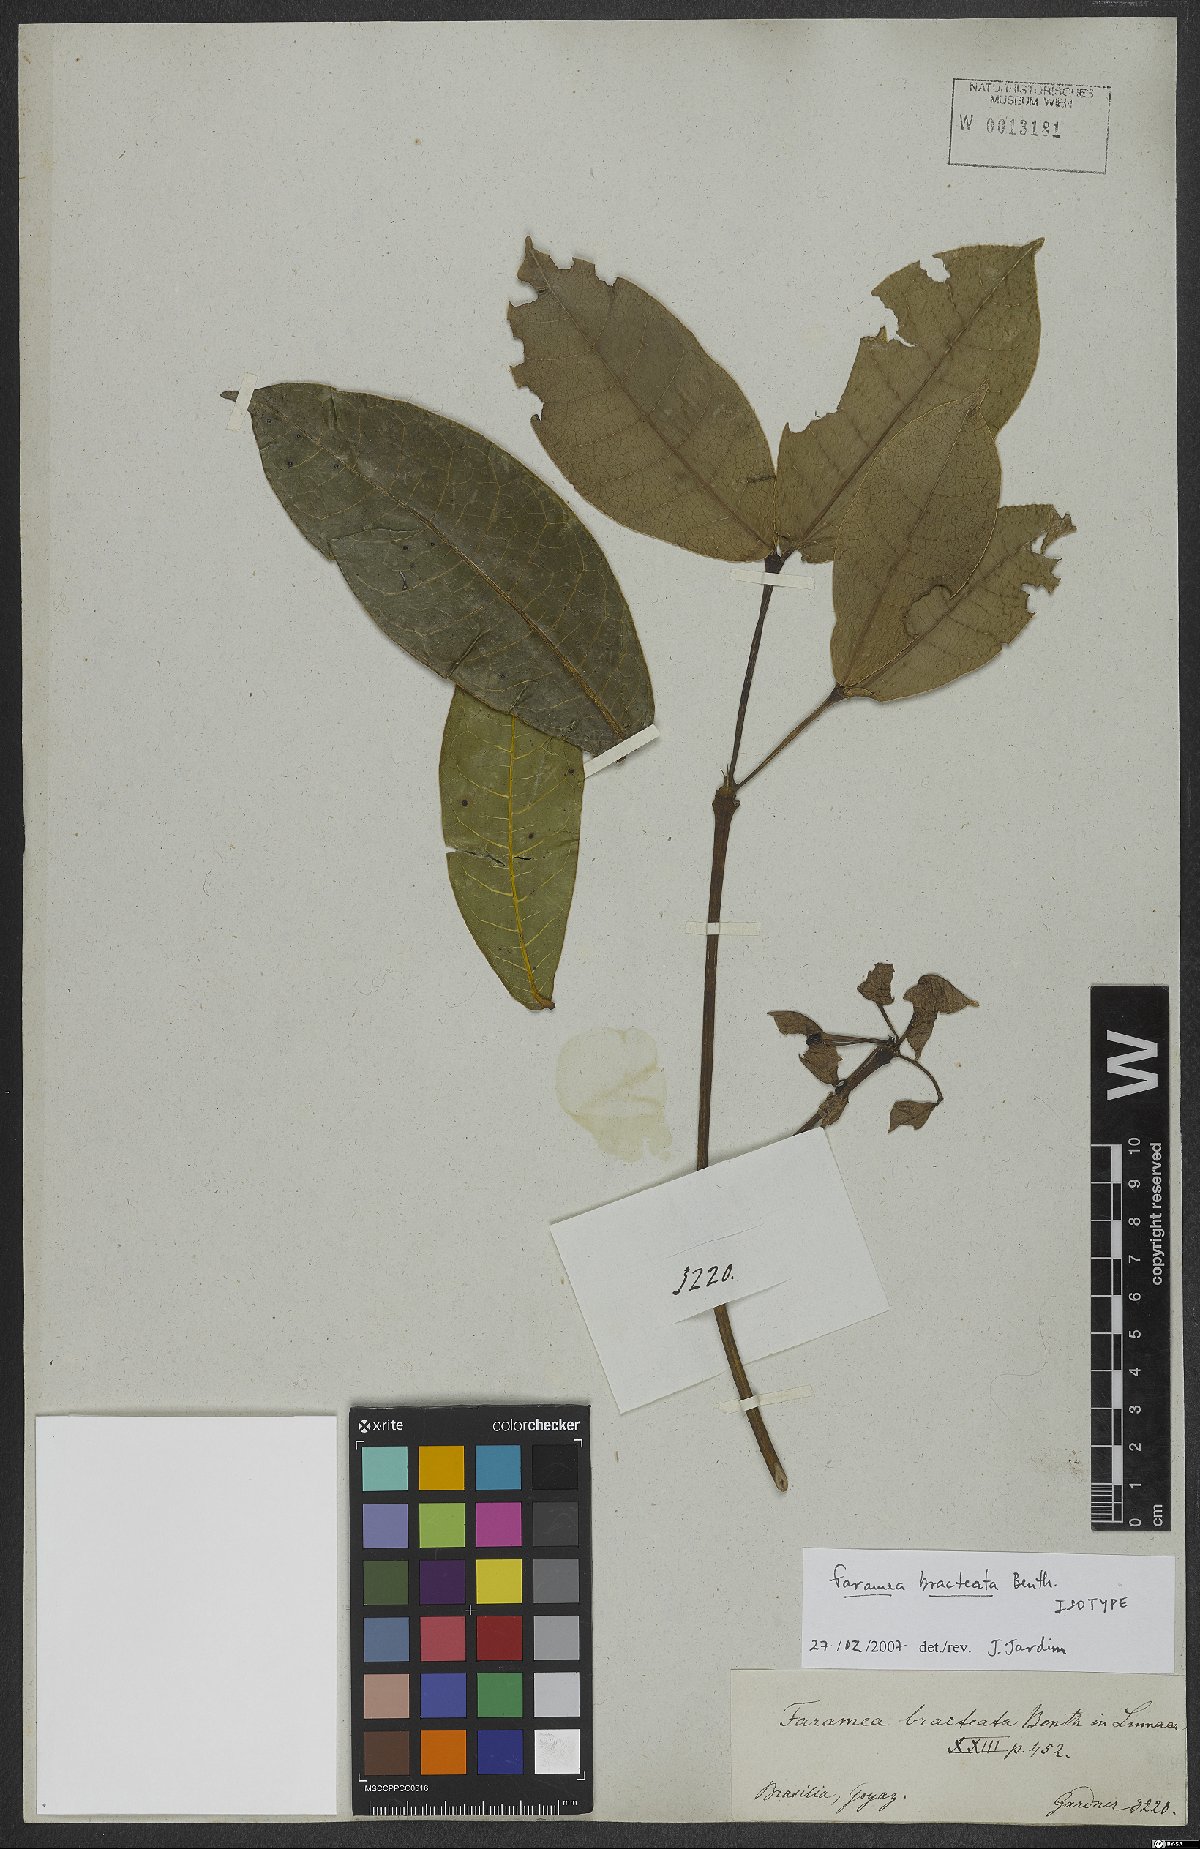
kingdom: Plantae
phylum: Tracheophyta
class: Magnoliopsida
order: Gentianales
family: Rubiaceae
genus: Faramea
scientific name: Faramea bracteata
